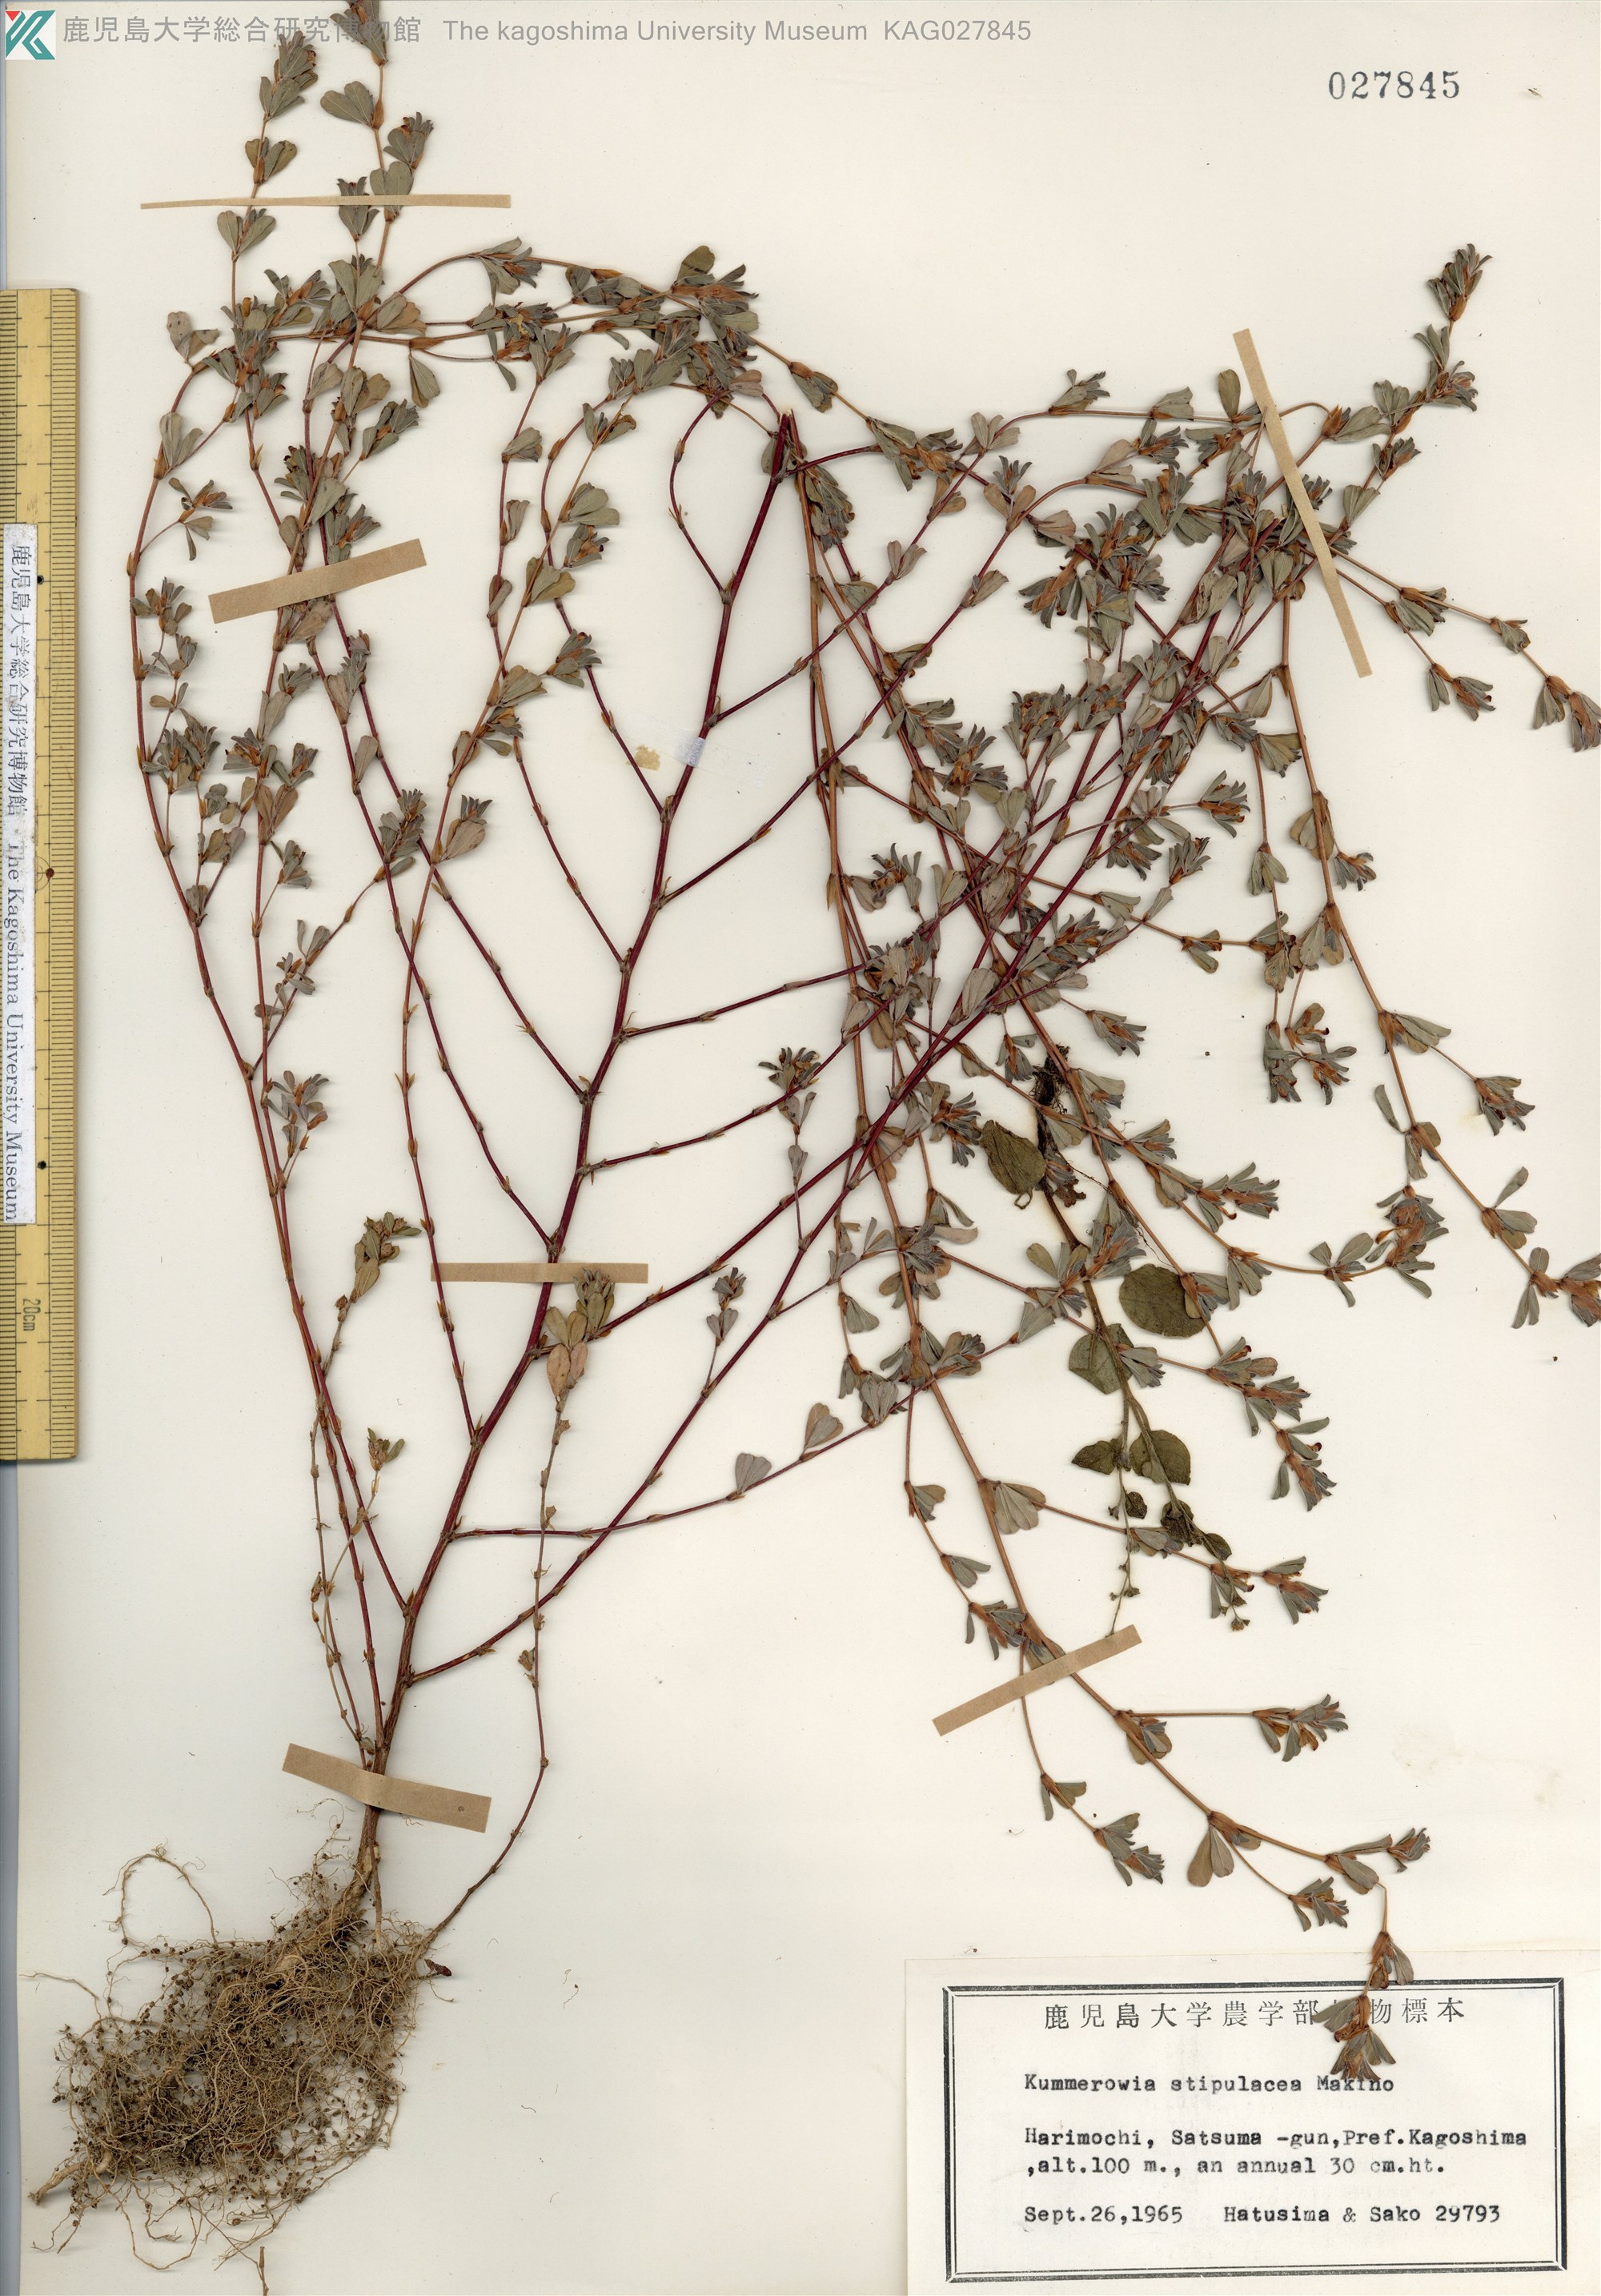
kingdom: Plantae
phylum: Tracheophyta
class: Magnoliopsida
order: Fabales
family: Fabaceae
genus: Kummerowia
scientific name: Kummerowia stipulacea
